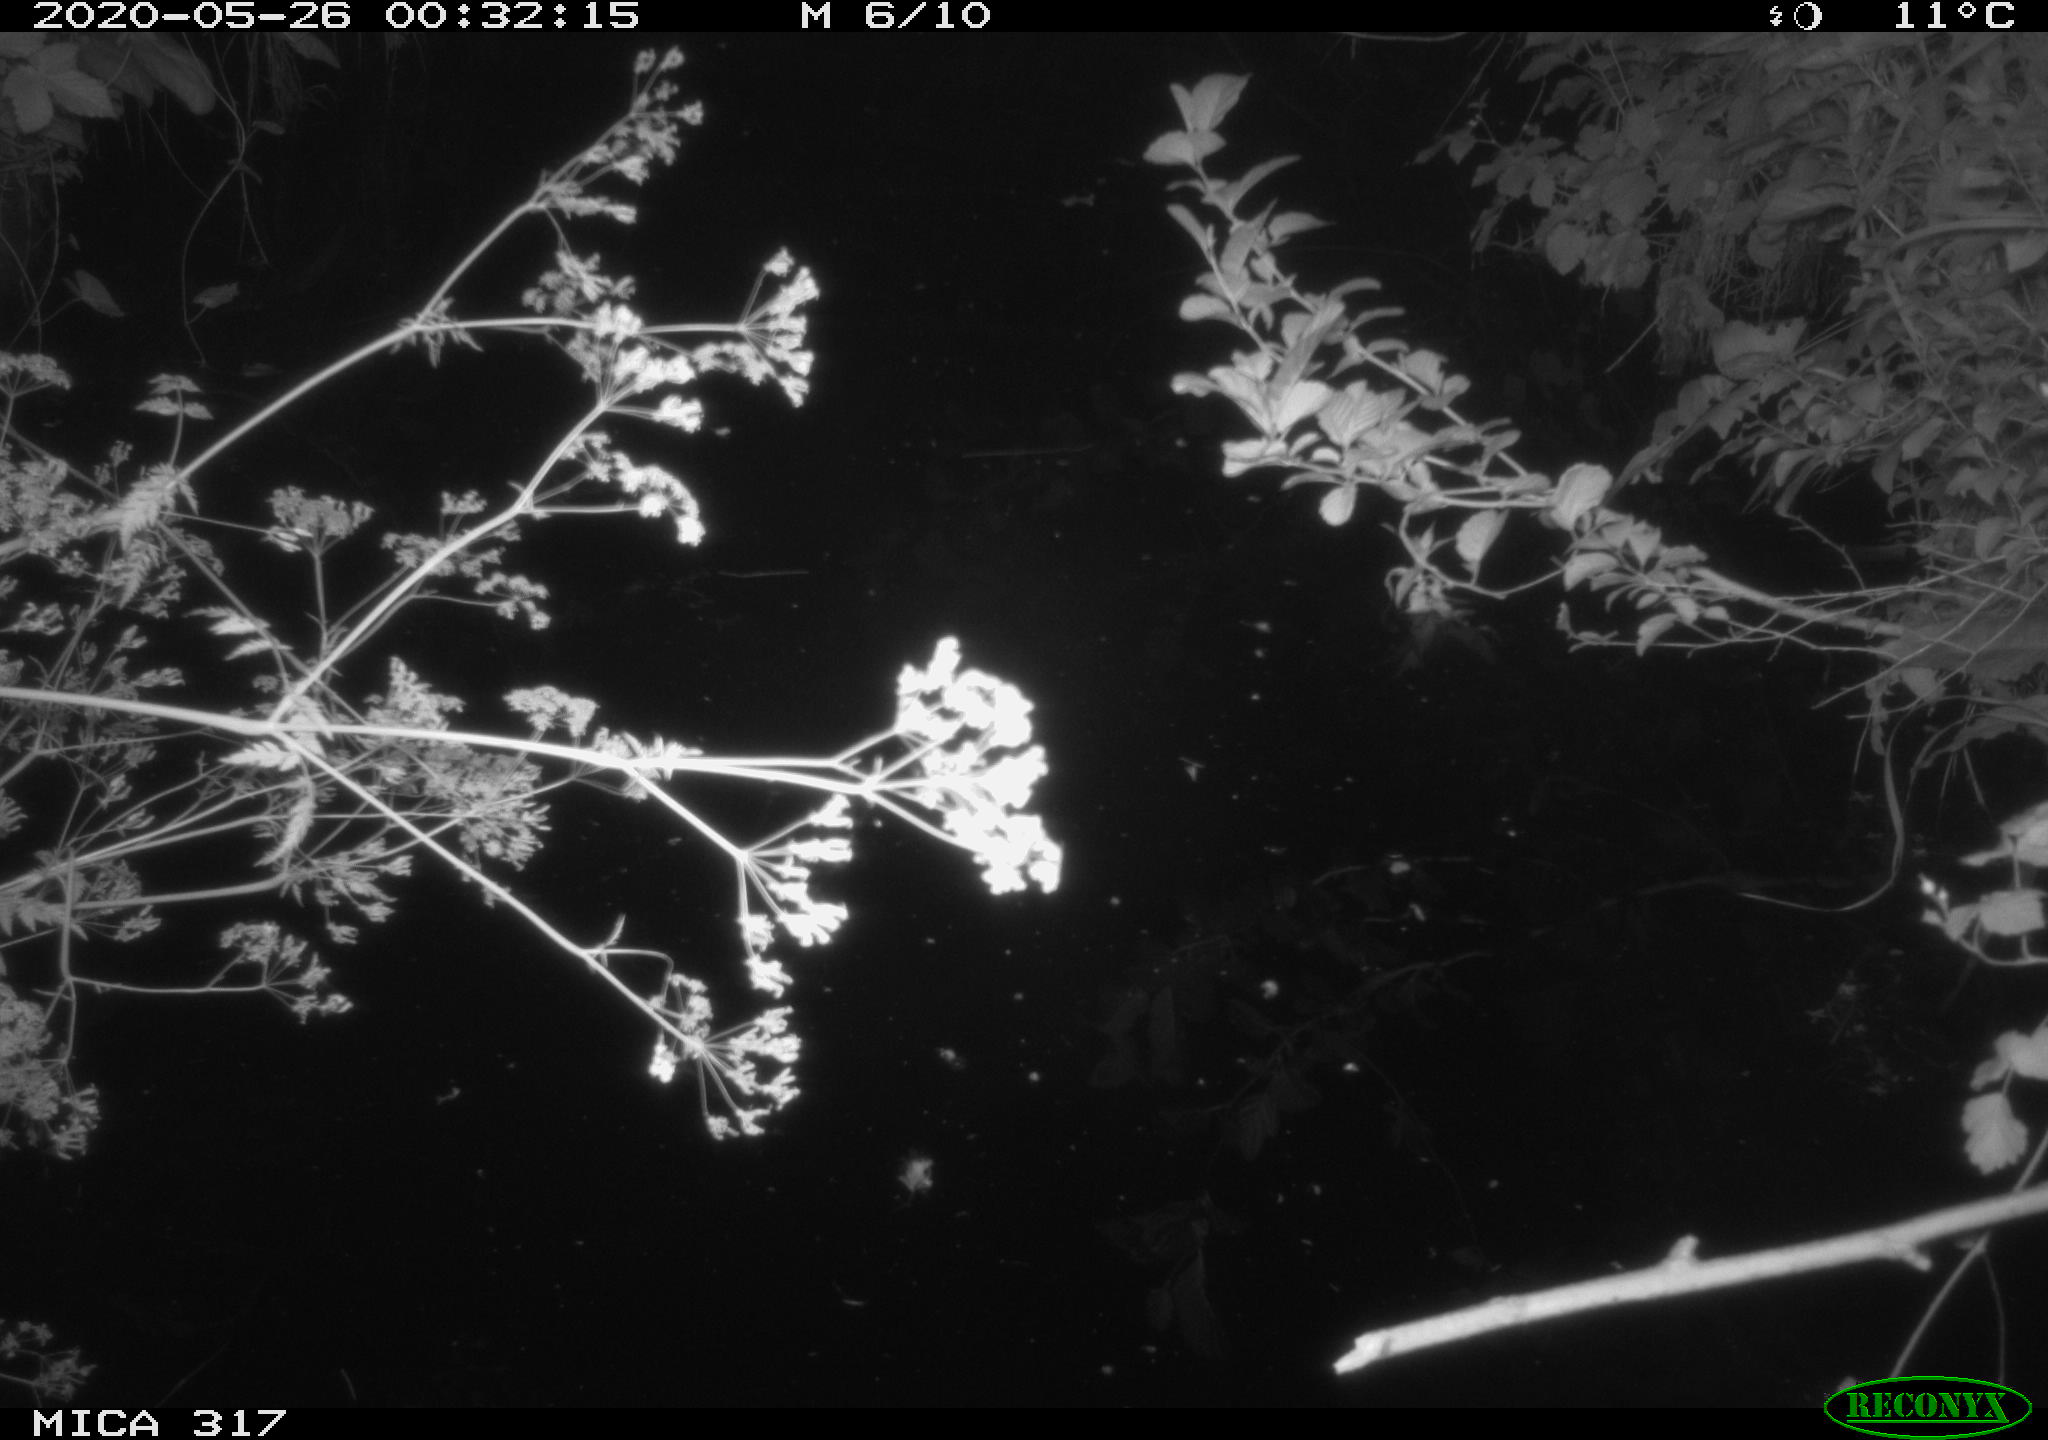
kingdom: Animalia
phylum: Chordata
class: Aves
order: Anseriformes
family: Anatidae
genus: Anas
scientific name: Anas platyrhynchos
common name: Mallard
